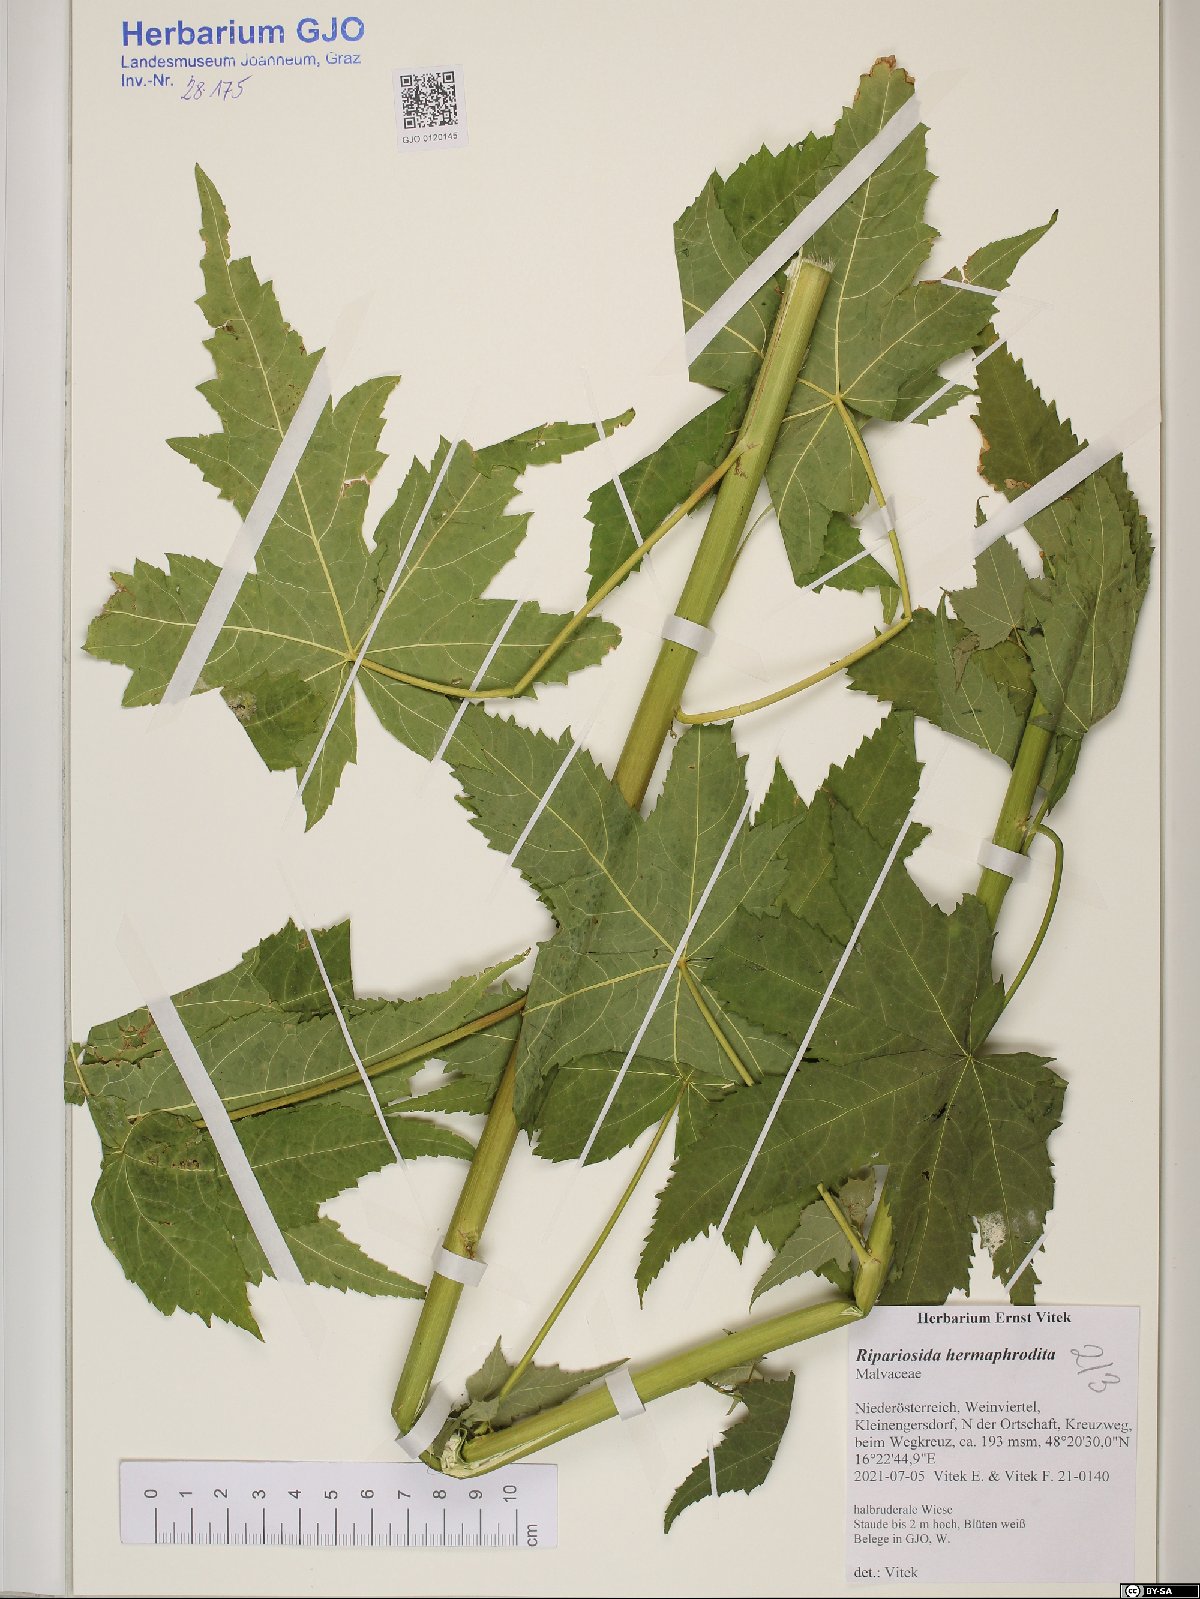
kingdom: Plantae
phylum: Tracheophyta
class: Magnoliopsida
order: Malvales
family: Malvaceae
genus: Ripariosida
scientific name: Ripariosida hermaphrodita
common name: Virginia fanpetals
